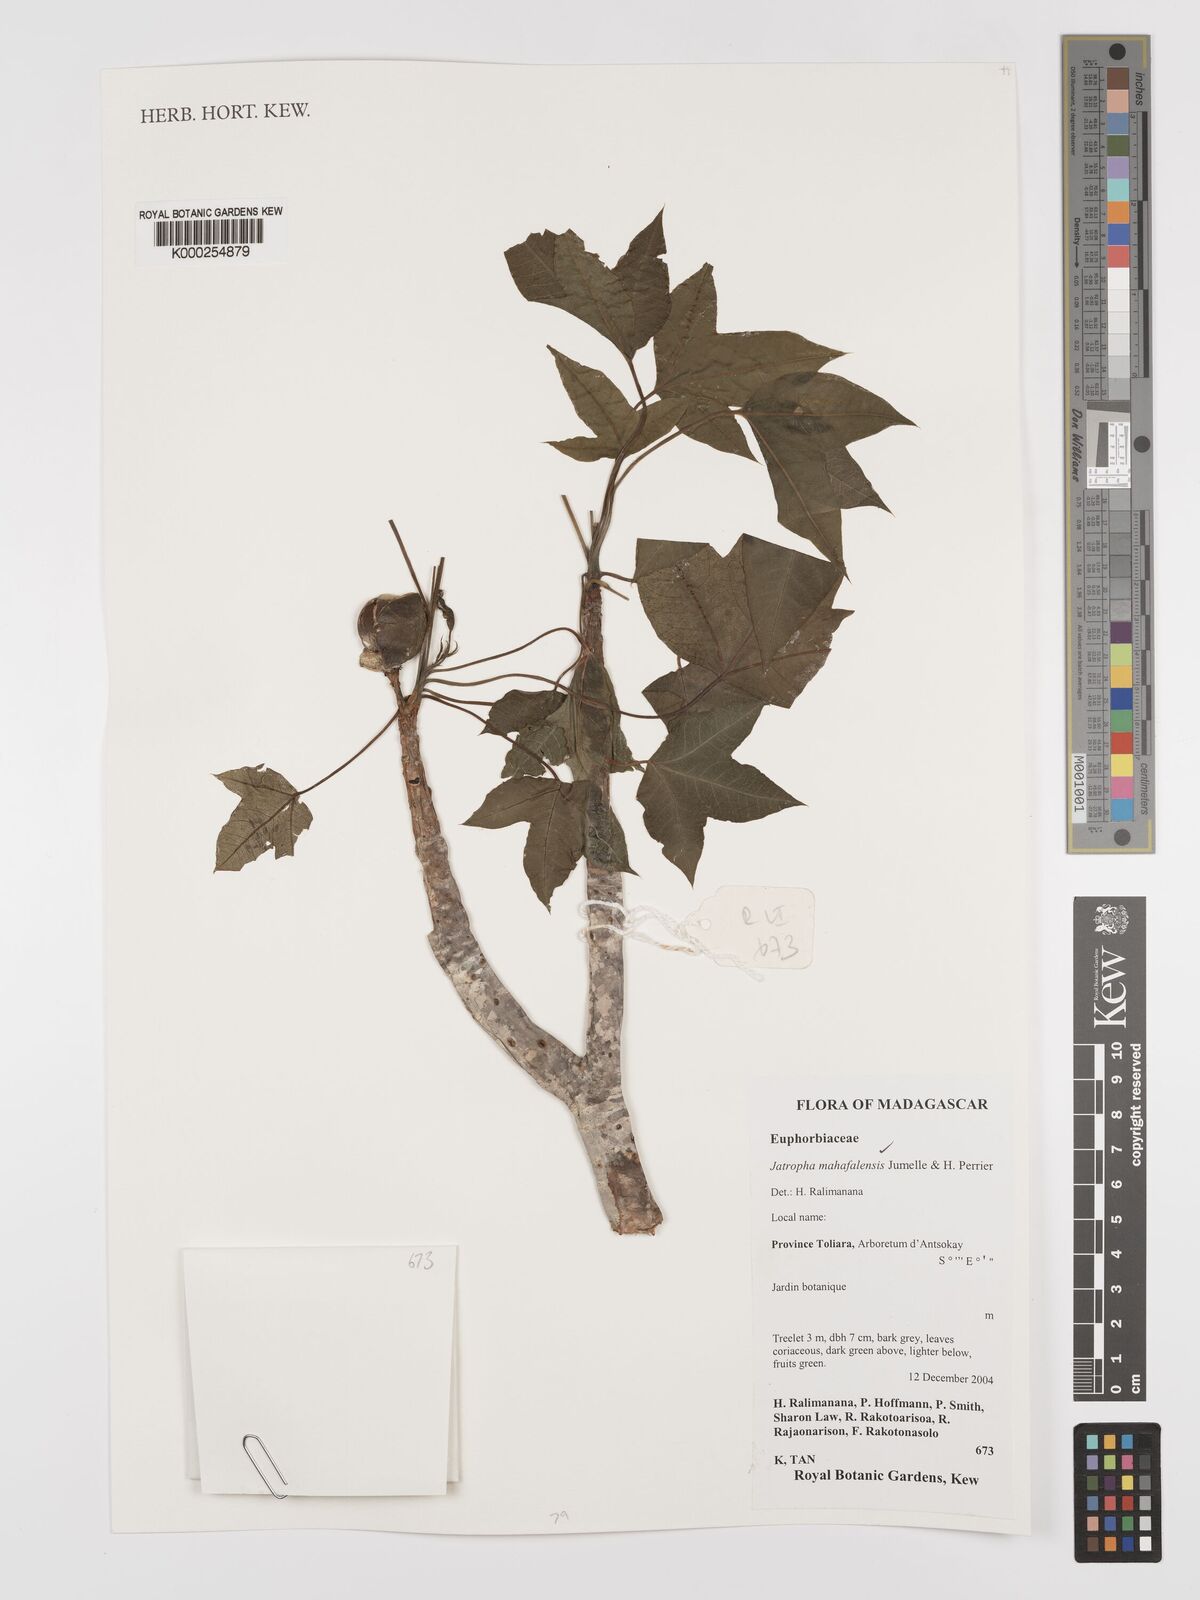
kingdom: Plantae
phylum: Tracheophyta
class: Magnoliopsida
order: Malpighiales
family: Euphorbiaceae
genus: Jatropha
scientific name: Jatropha mahafalensis
